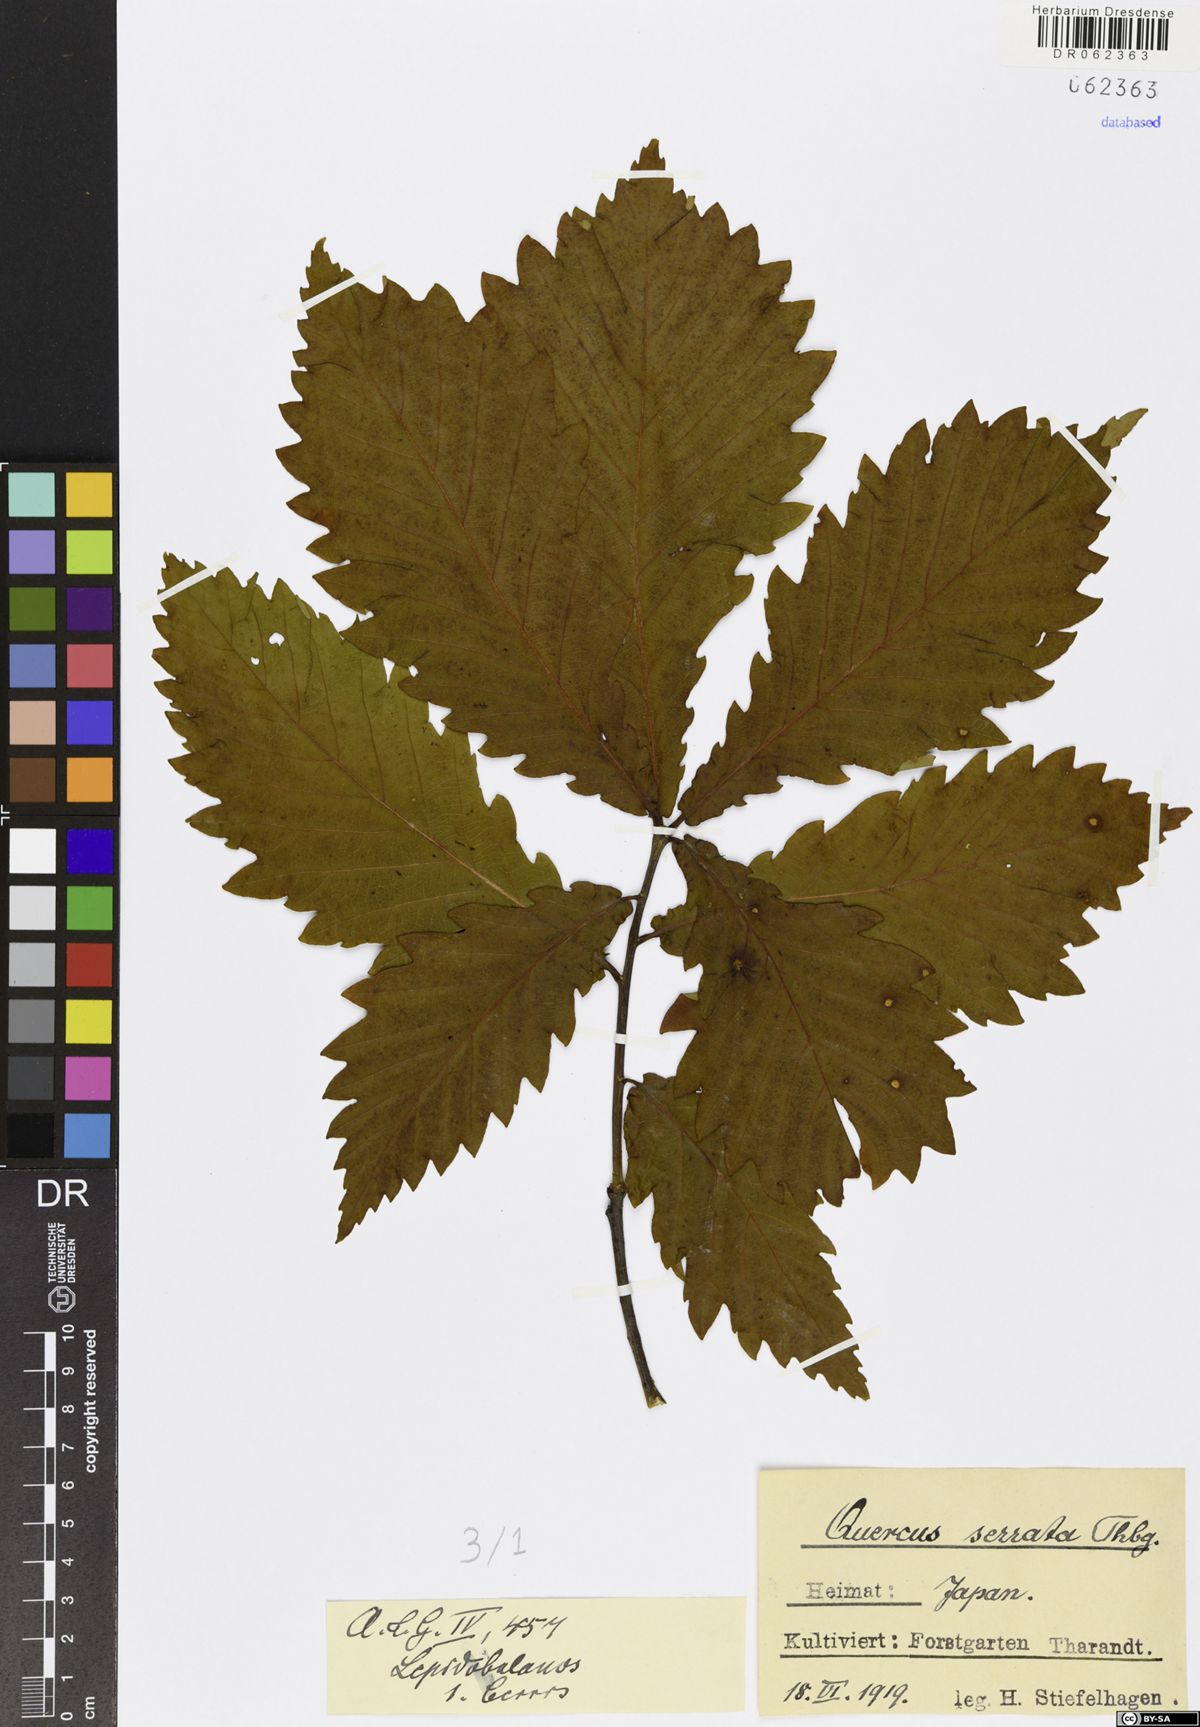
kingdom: Plantae
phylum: Tracheophyta
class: Magnoliopsida
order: Fagales
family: Fagaceae
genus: Quercus
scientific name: Quercus serrata
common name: Bao li
